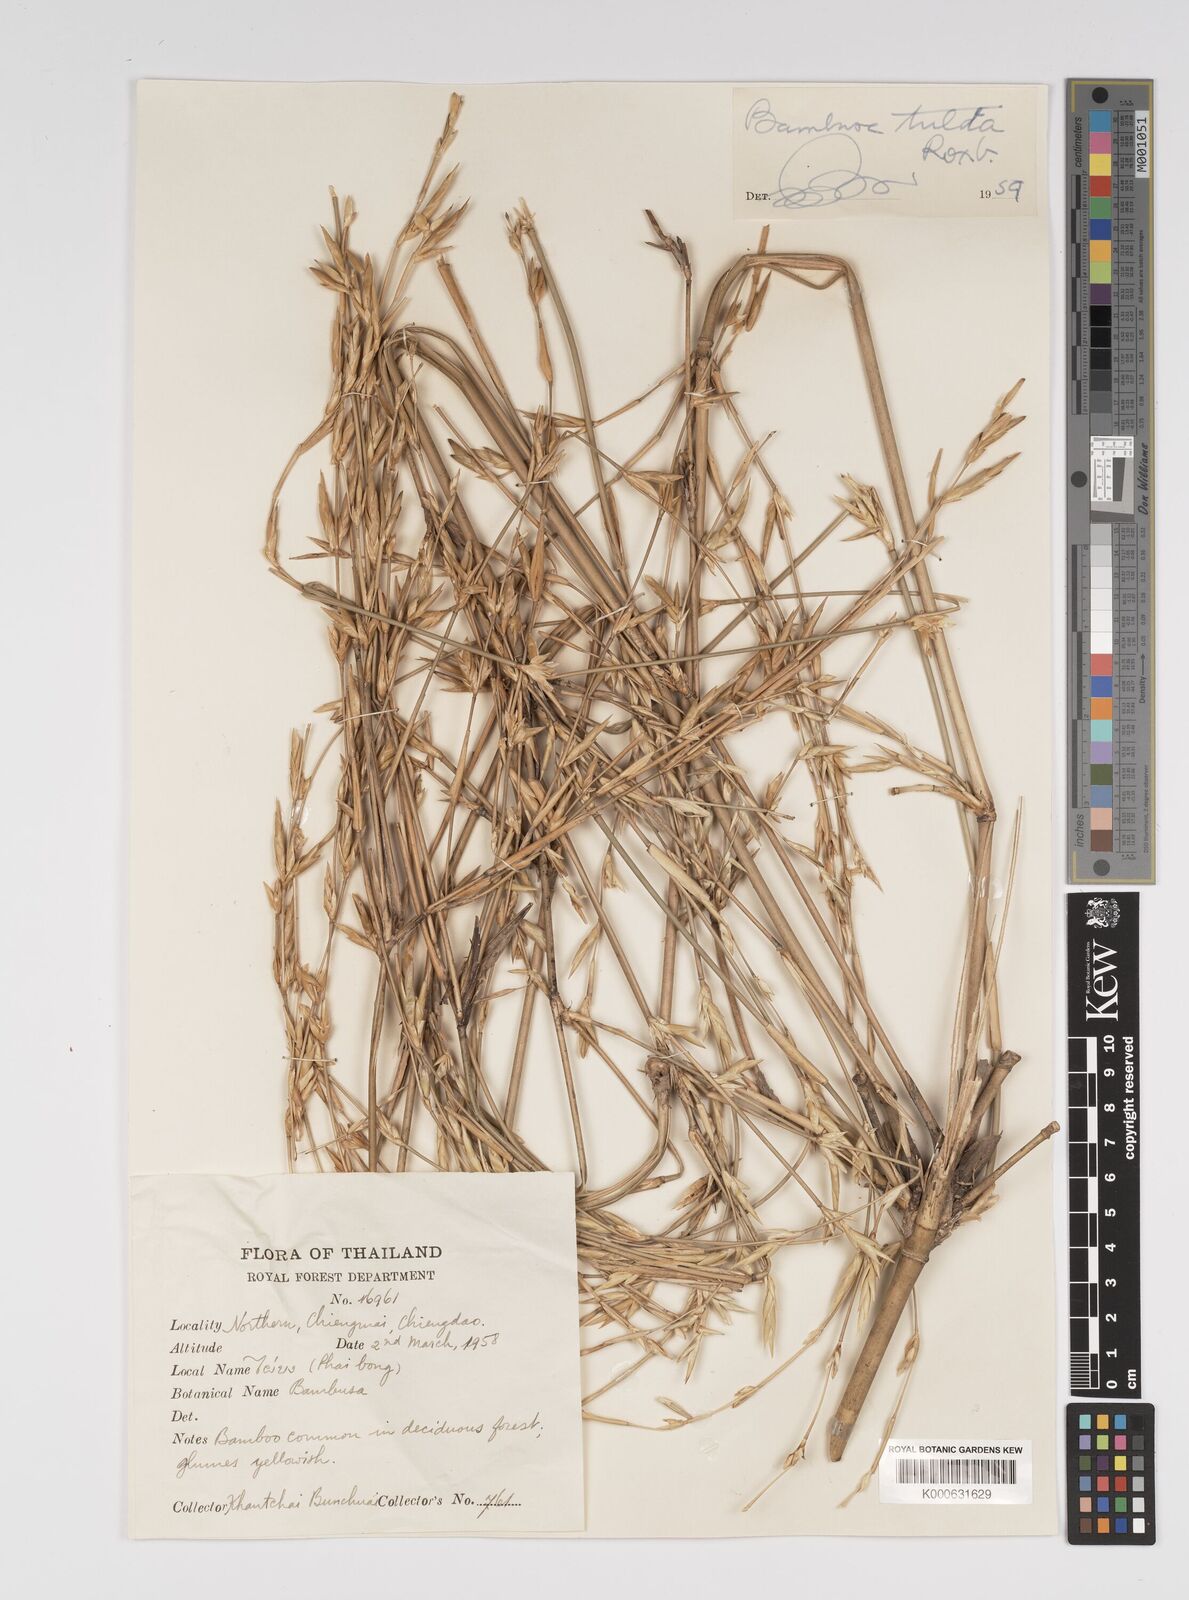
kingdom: Plantae
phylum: Tracheophyta
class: Liliopsida
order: Poales
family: Poaceae
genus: Bambusa
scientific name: Bambusa tulda
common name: Bengal bamboo
